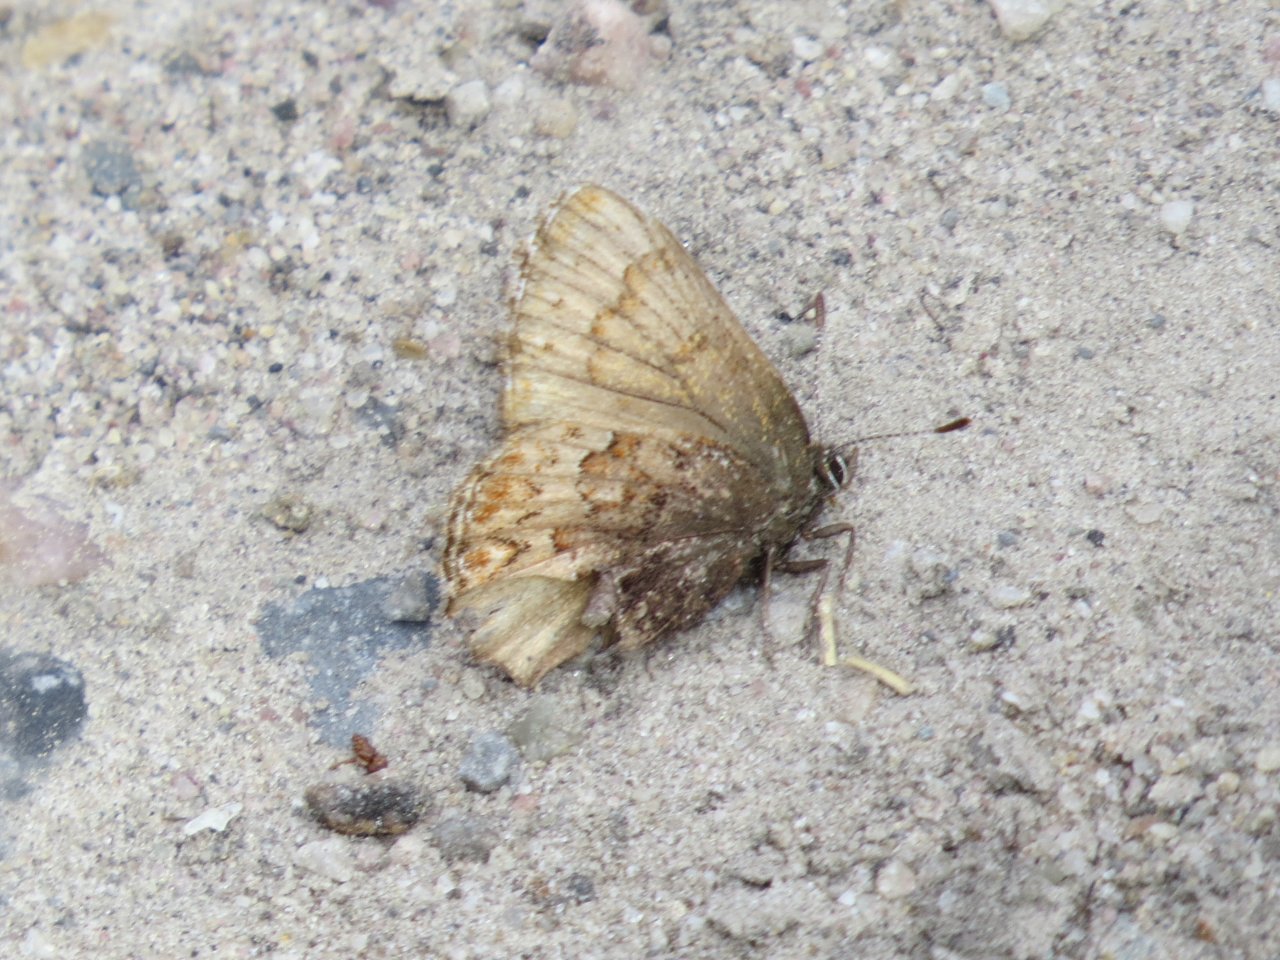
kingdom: Animalia
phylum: Arthropoda
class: Insecta
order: Lepidoptera
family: Lycaenidae
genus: Incisalia
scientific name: Incisalia eryphon
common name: Western Pine Elfin
